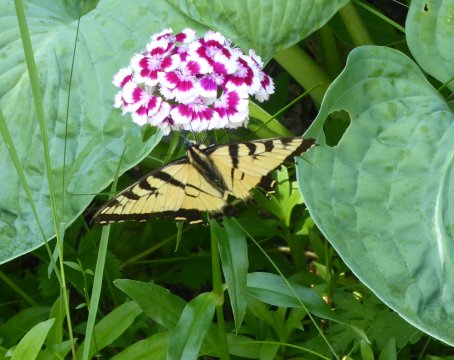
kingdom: Animalia
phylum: Arthropoda
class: Insecta
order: Lepidoptera
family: Papilionidae
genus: Pterourus
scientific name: Pterourus glaucus
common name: Eastern Tiger Swallowtail
